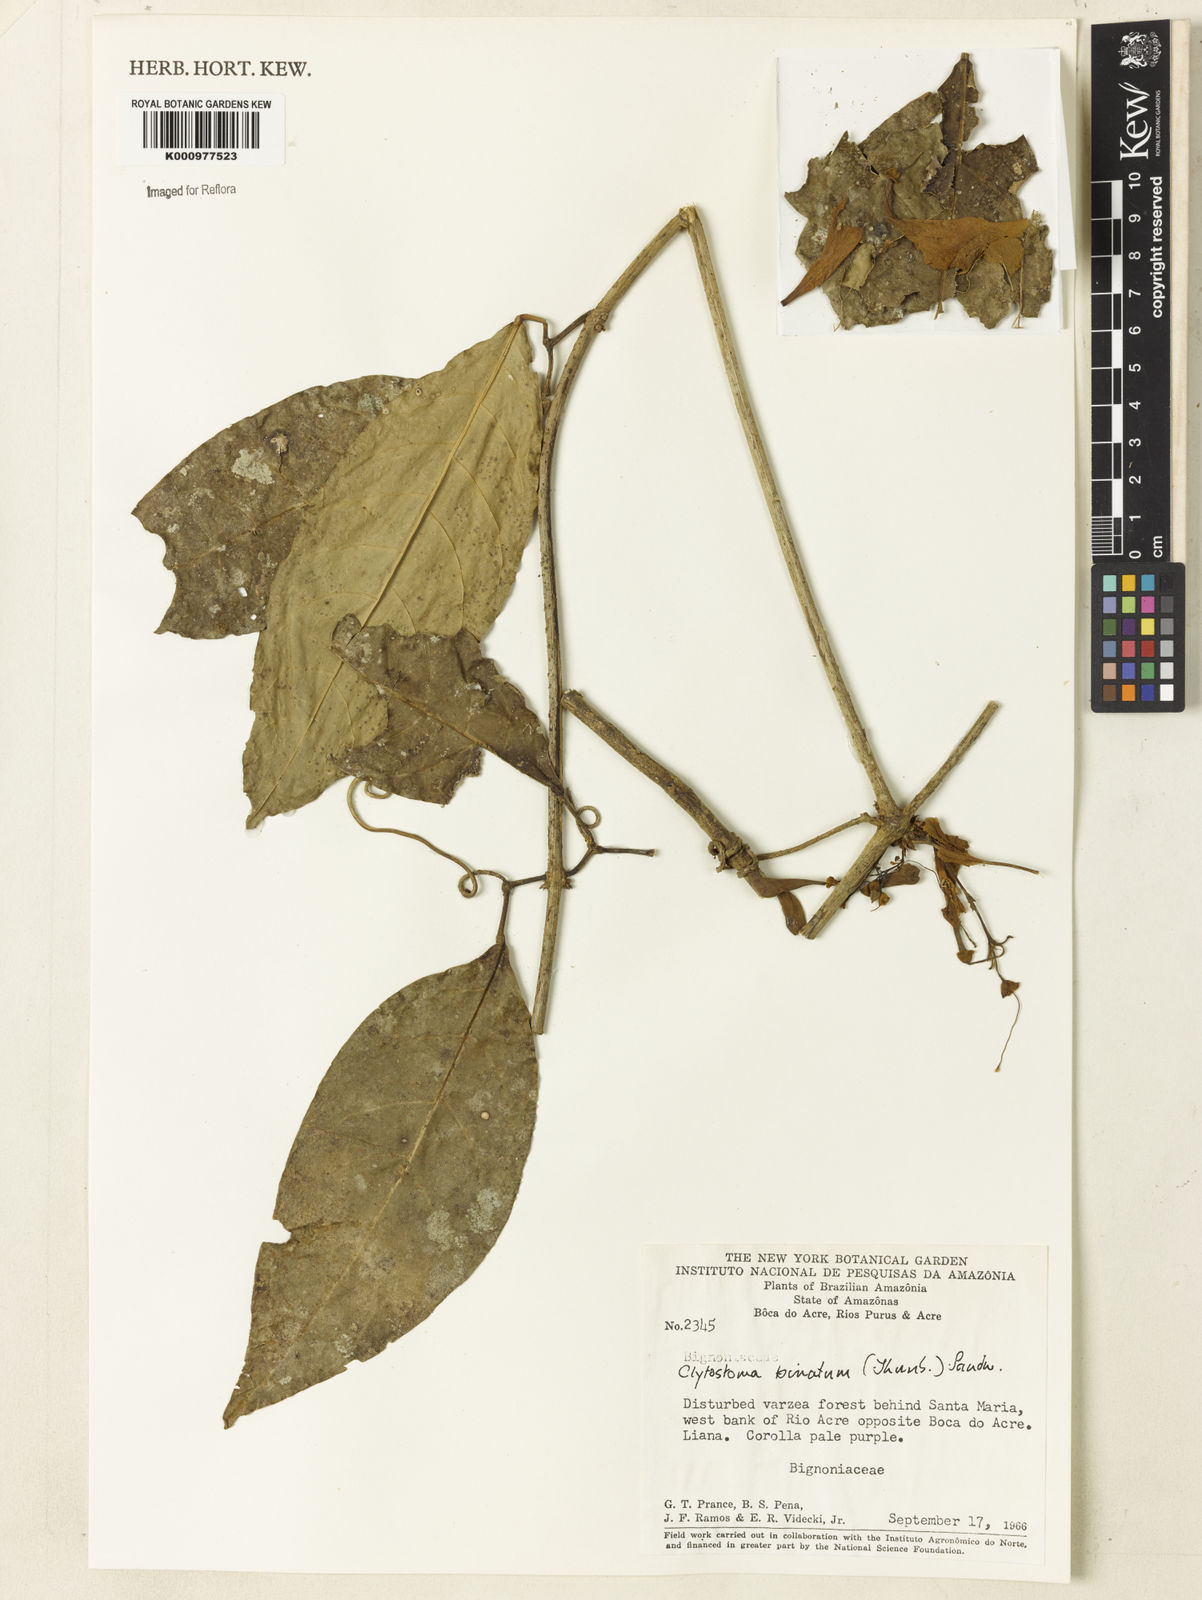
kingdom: Plantae
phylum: Tracheophyta
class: Magnoliopsida
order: Lamiales
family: Bignoniaceae
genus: Bignonia
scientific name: Bignonia binata
